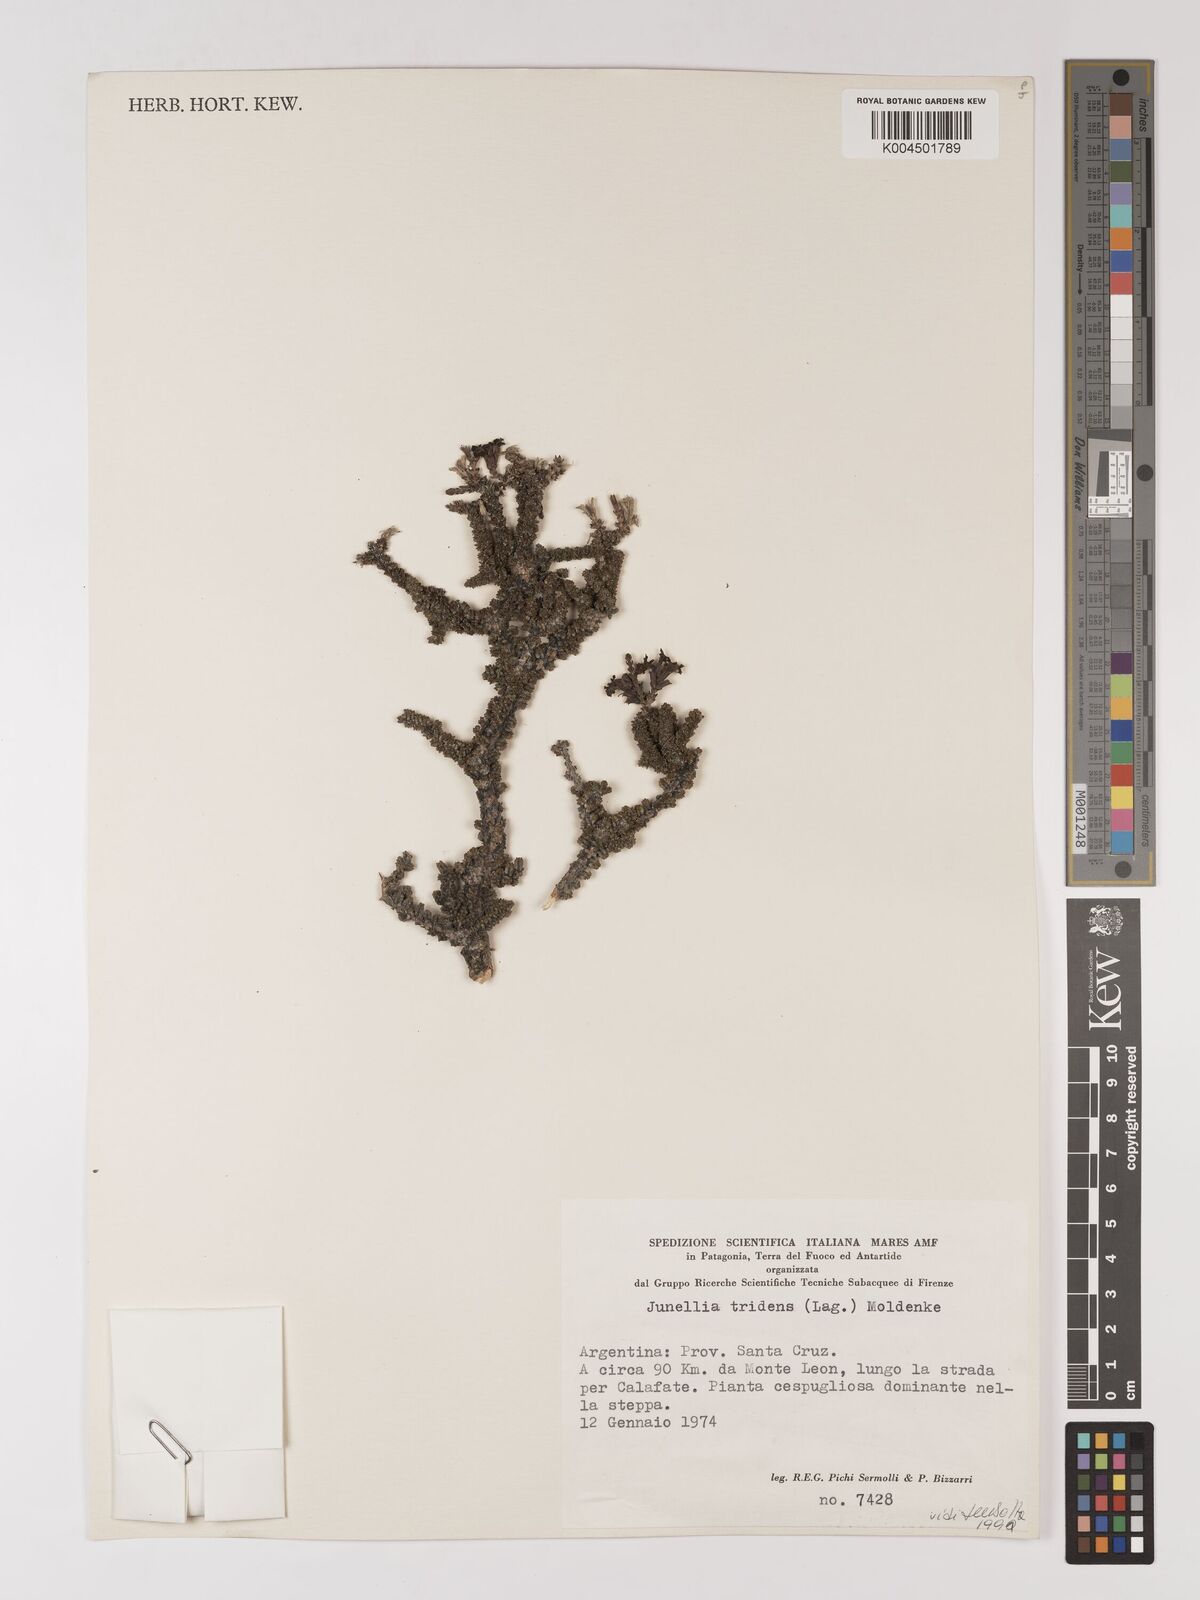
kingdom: Plantae
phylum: Tracheophyta
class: Magnoliopsida
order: Lamiales
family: Verbenaceae
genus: Mulguraea
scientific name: Mulguraea tridens
